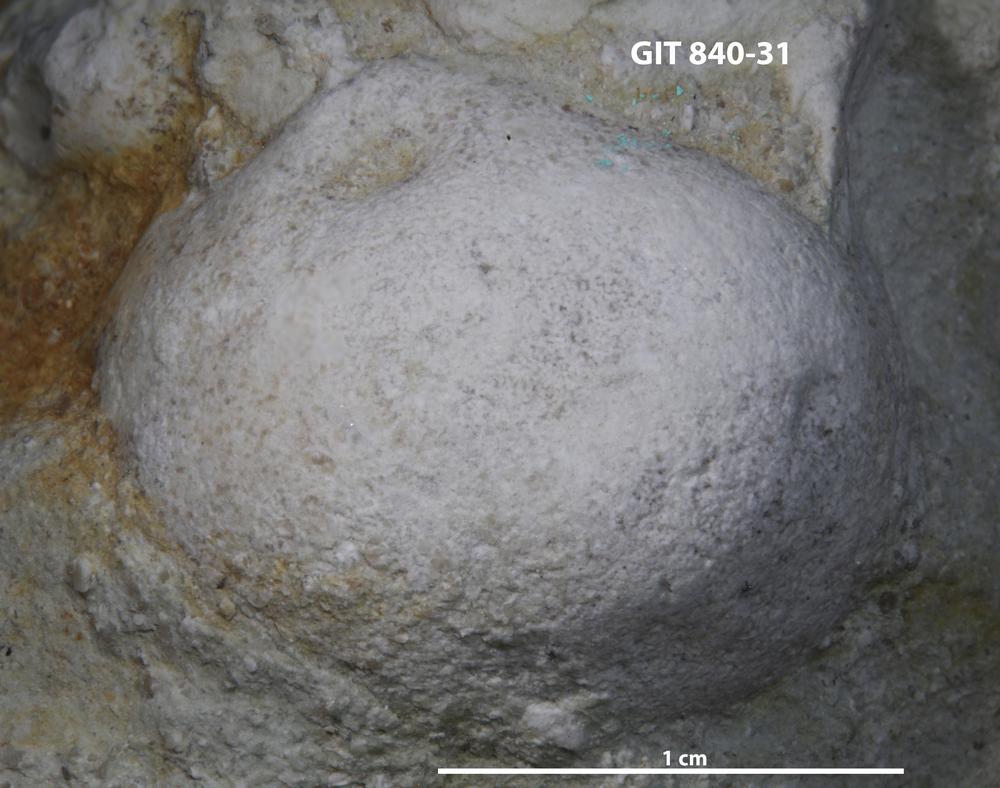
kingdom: Animalia
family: Coprulidae
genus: Coprulus
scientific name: Coprulus
